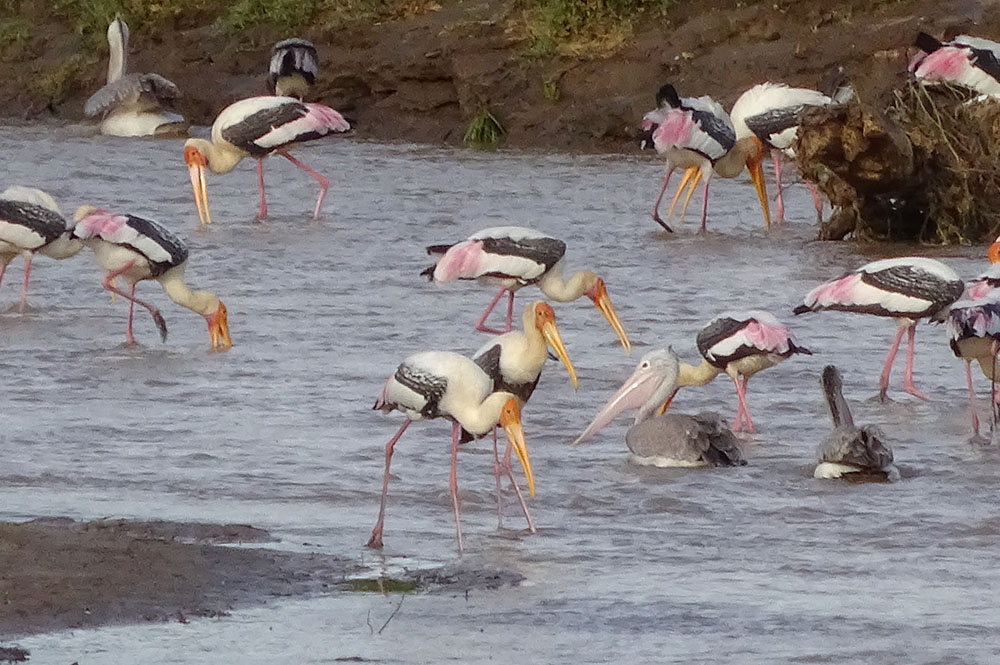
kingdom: Animalia
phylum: Chordata
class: Aves
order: Ciconiiformes
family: Ciconiidae
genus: Mycteria
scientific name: Mycteria leucocephala
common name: Painted stork
